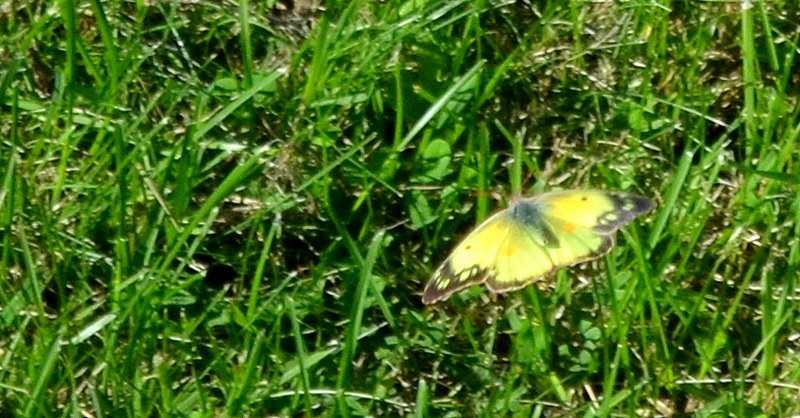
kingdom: Animalia
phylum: Arthropoda
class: Insecta
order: Lepidoptera
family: Pieridae
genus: Colias
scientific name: Colias eurytheme
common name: Orange Sulphur
